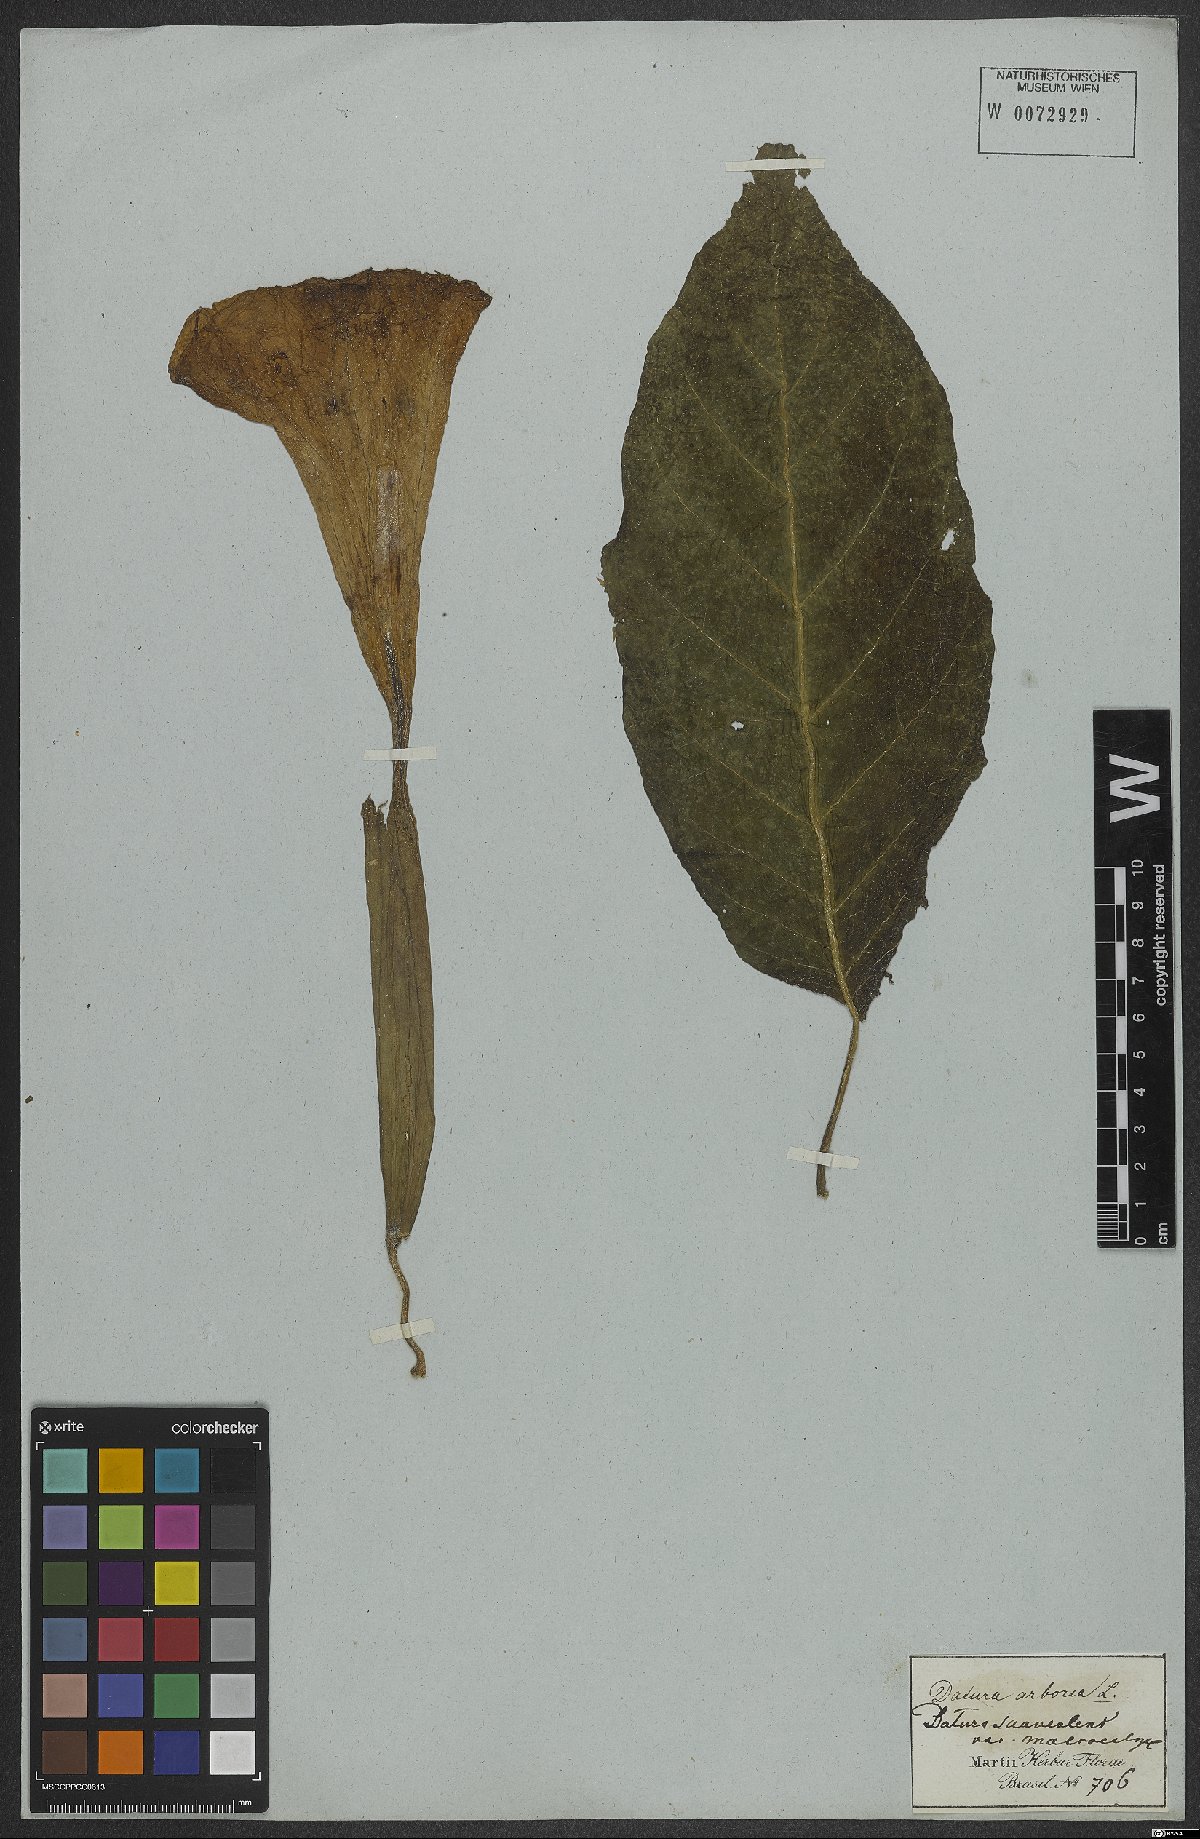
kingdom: Plantae
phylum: Tracheophyta
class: Magnoliopsida
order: Solanales
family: Solanaceae
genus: Brugmansia
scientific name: Brugmansia suaveolens
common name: Angel's tears
